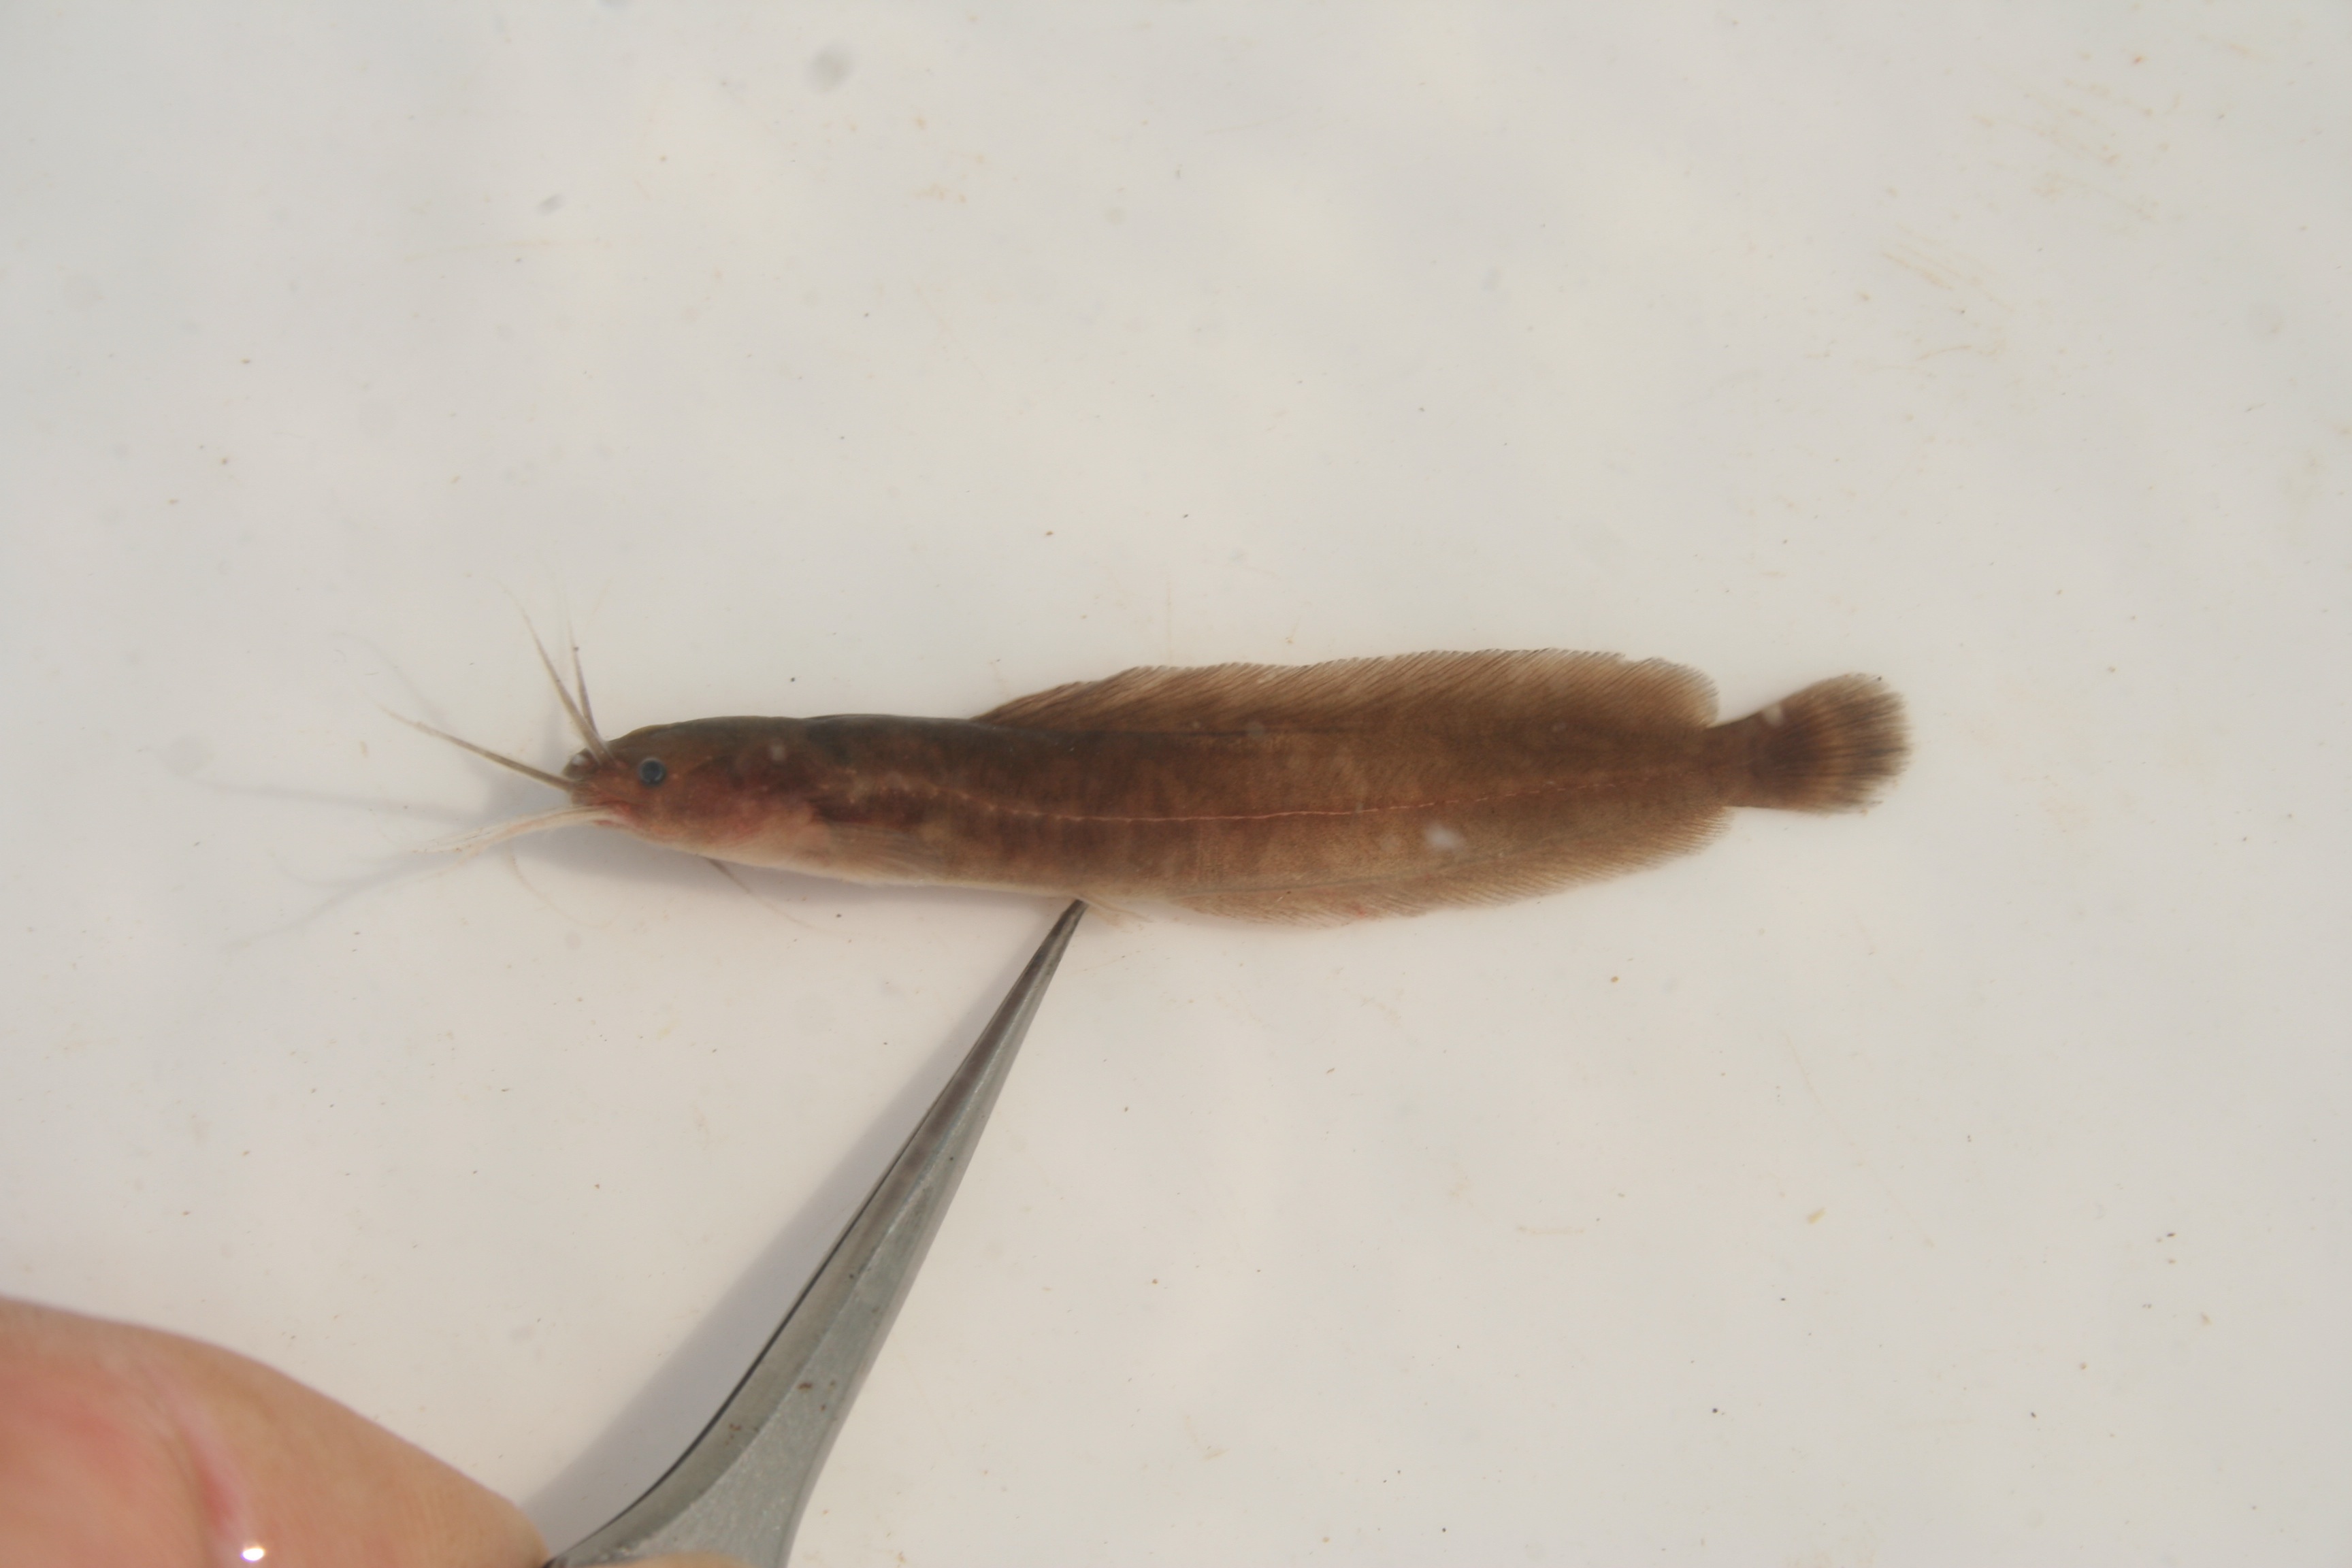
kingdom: Animalia
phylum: Chordata
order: Siluriformes
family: Clariidae
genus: Clarias
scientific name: Clarias
